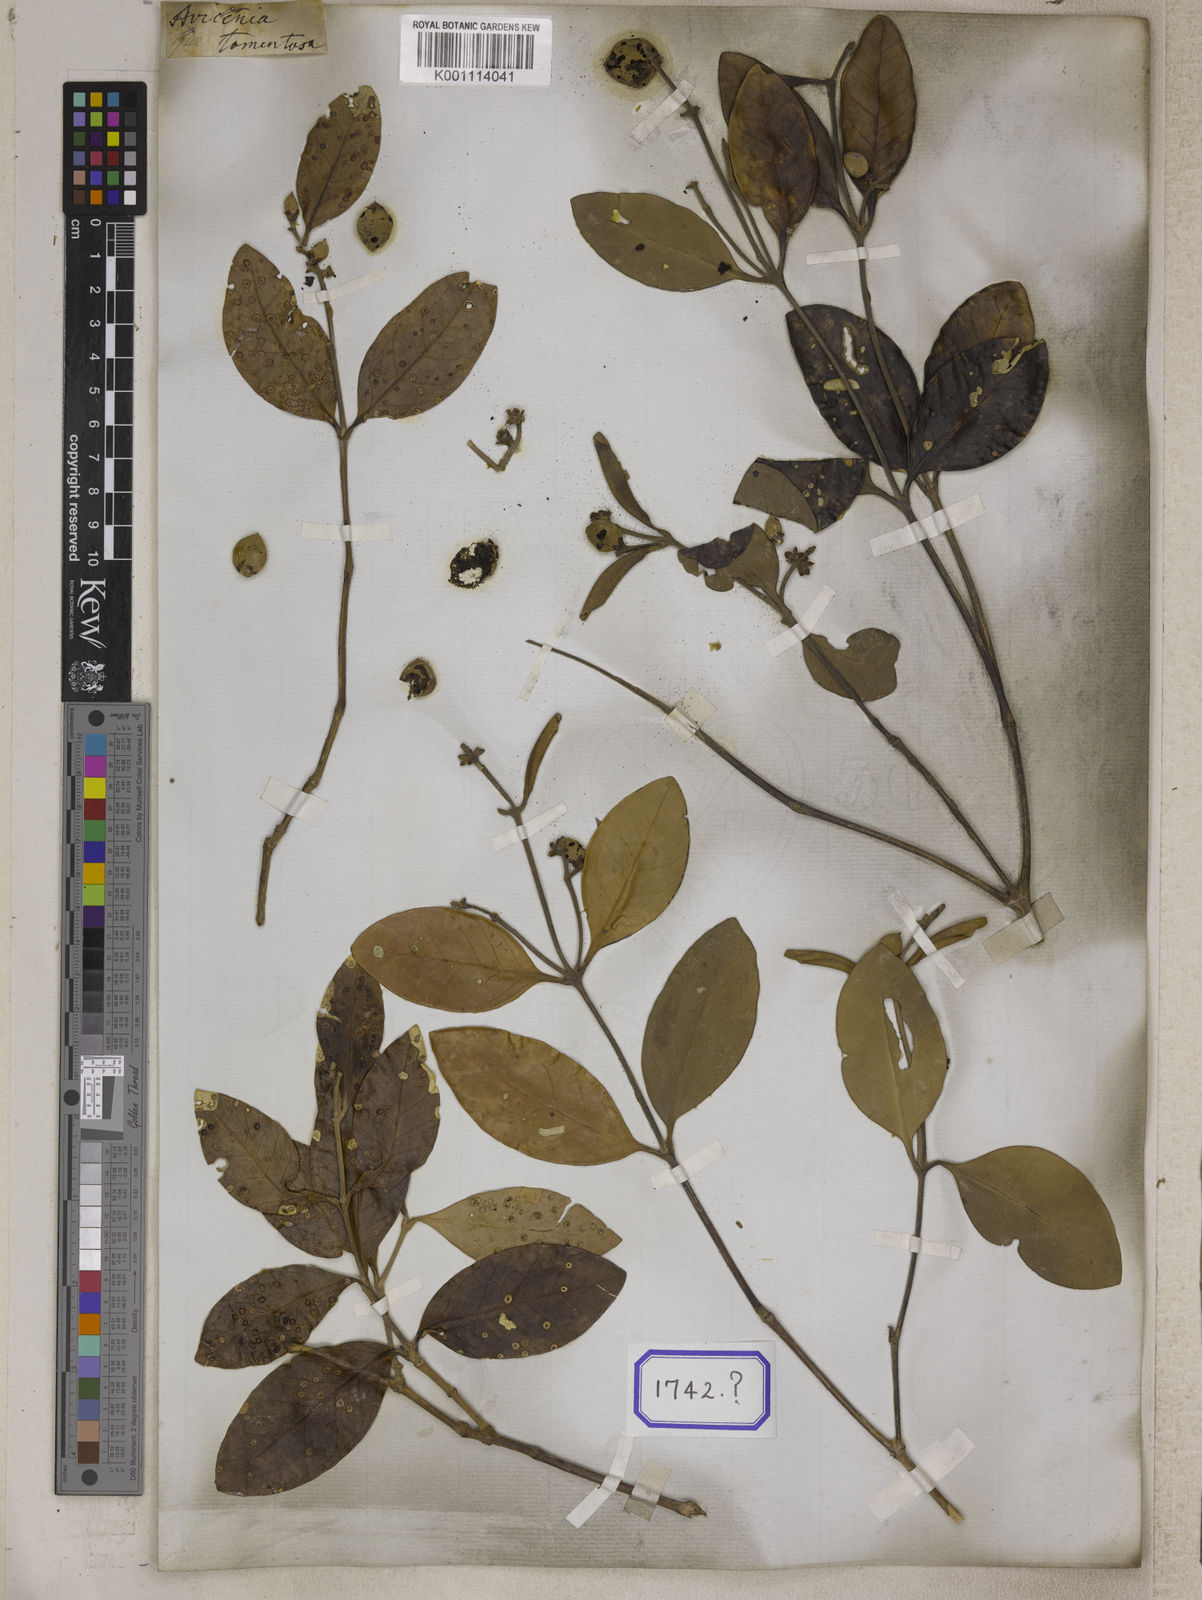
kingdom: Plantae
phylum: Tracheophyta
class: Magnoliopsida
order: Lamiales
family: Acanthaceae
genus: Avicennia
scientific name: Avicennia germinans
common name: Black mangrove
